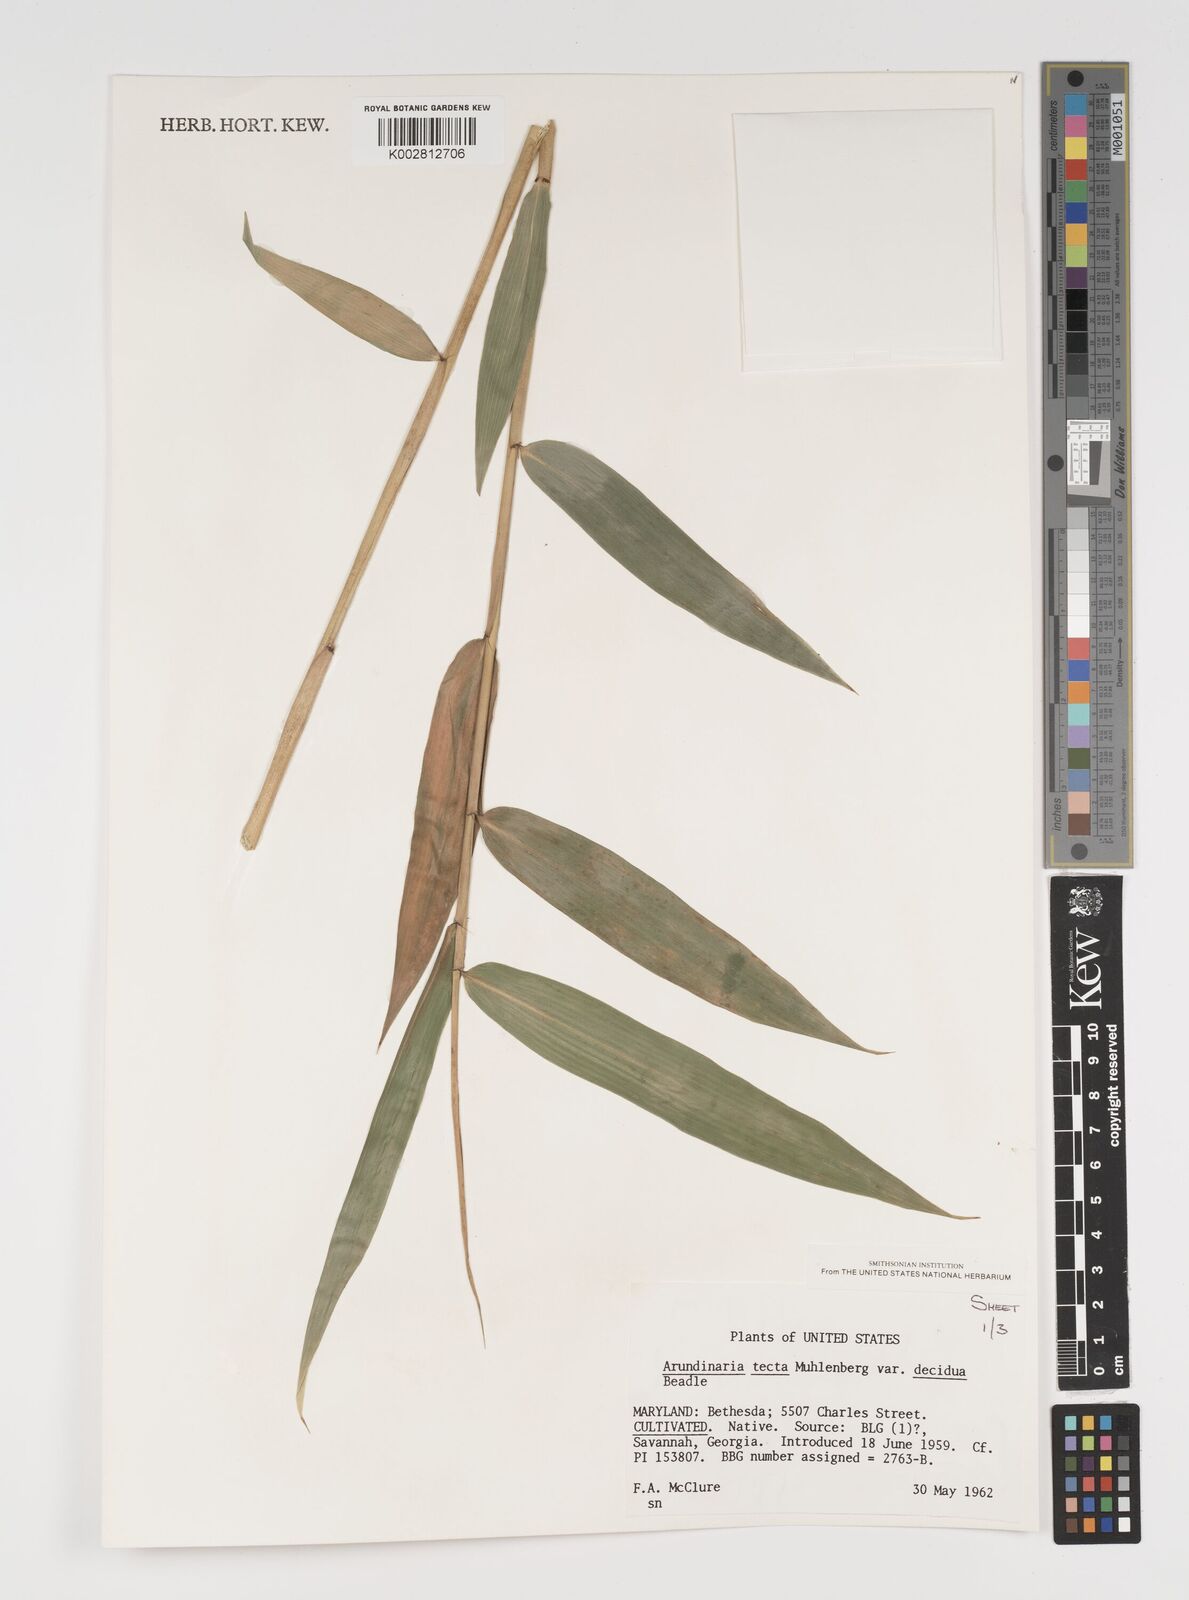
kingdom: Plantae
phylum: Tracheophyta
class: Liliopsida
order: Poales
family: Poaceae
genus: Arundinaria
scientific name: Arundinaria tecta
